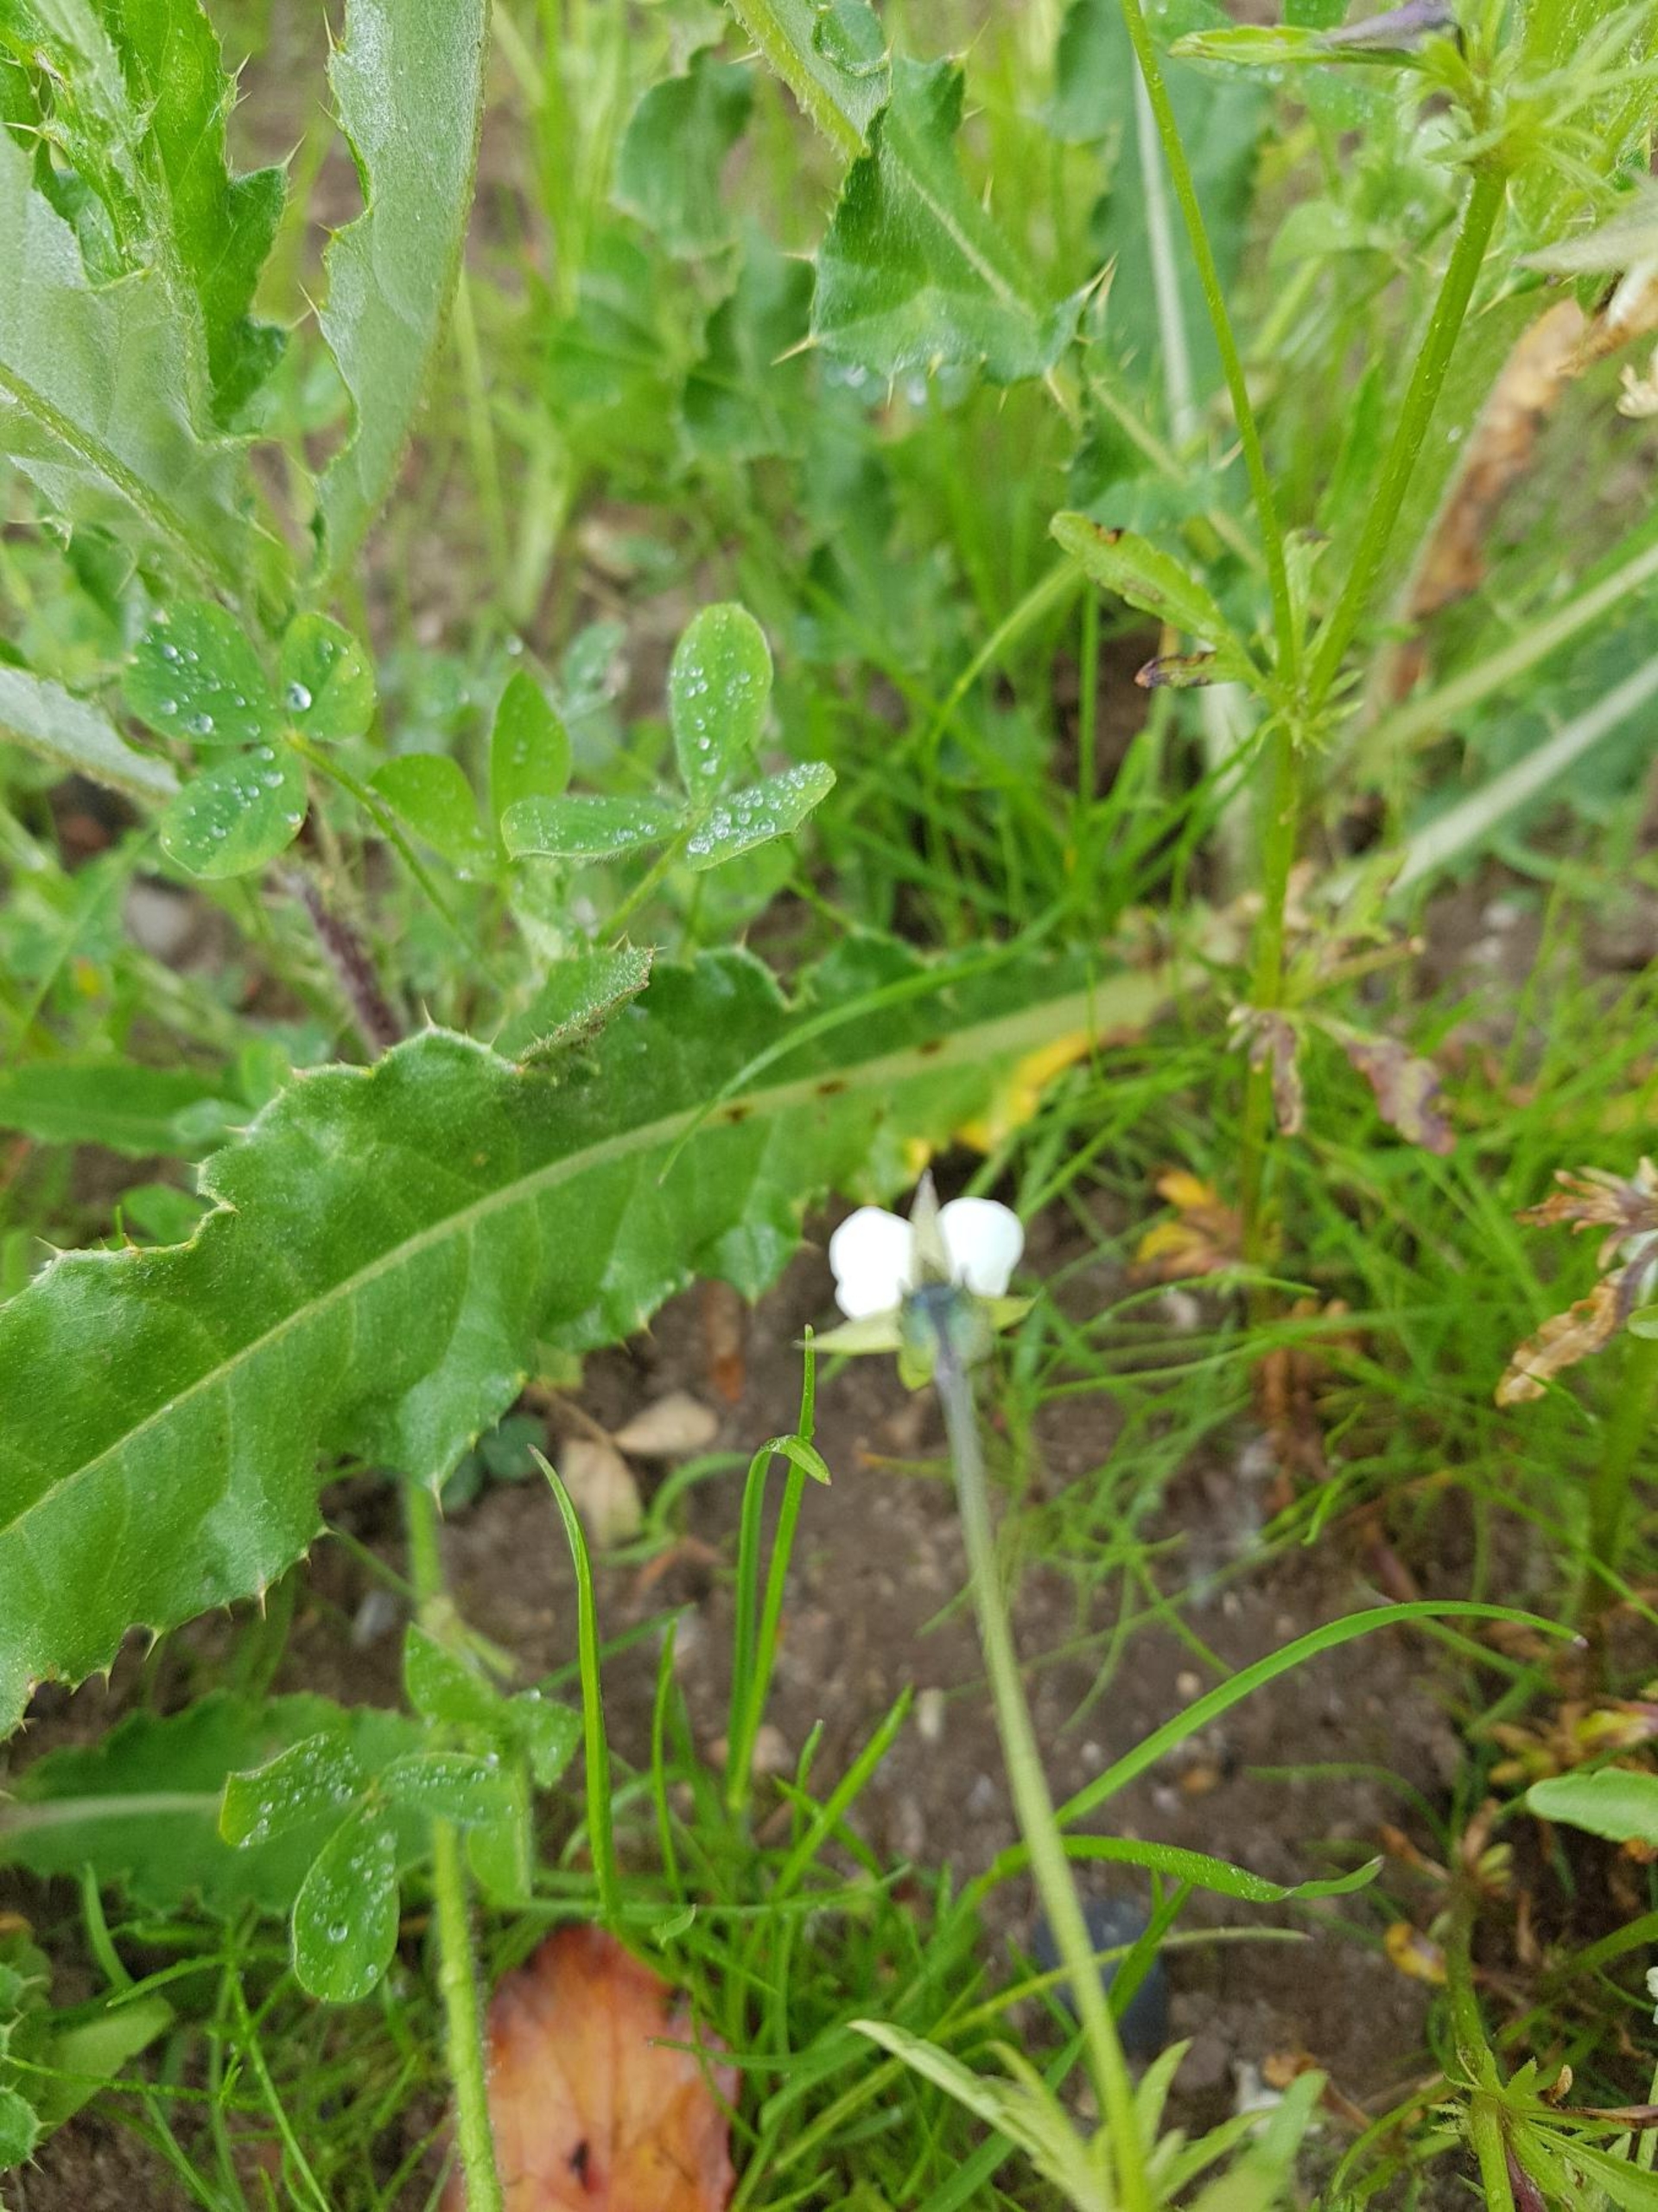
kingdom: Plantae
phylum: Tracheophyta
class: Magnoliopsida
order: Malpighiales
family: Violaceae
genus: Viola
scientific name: Viola arvensis
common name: Ager-stedmoderblomst
